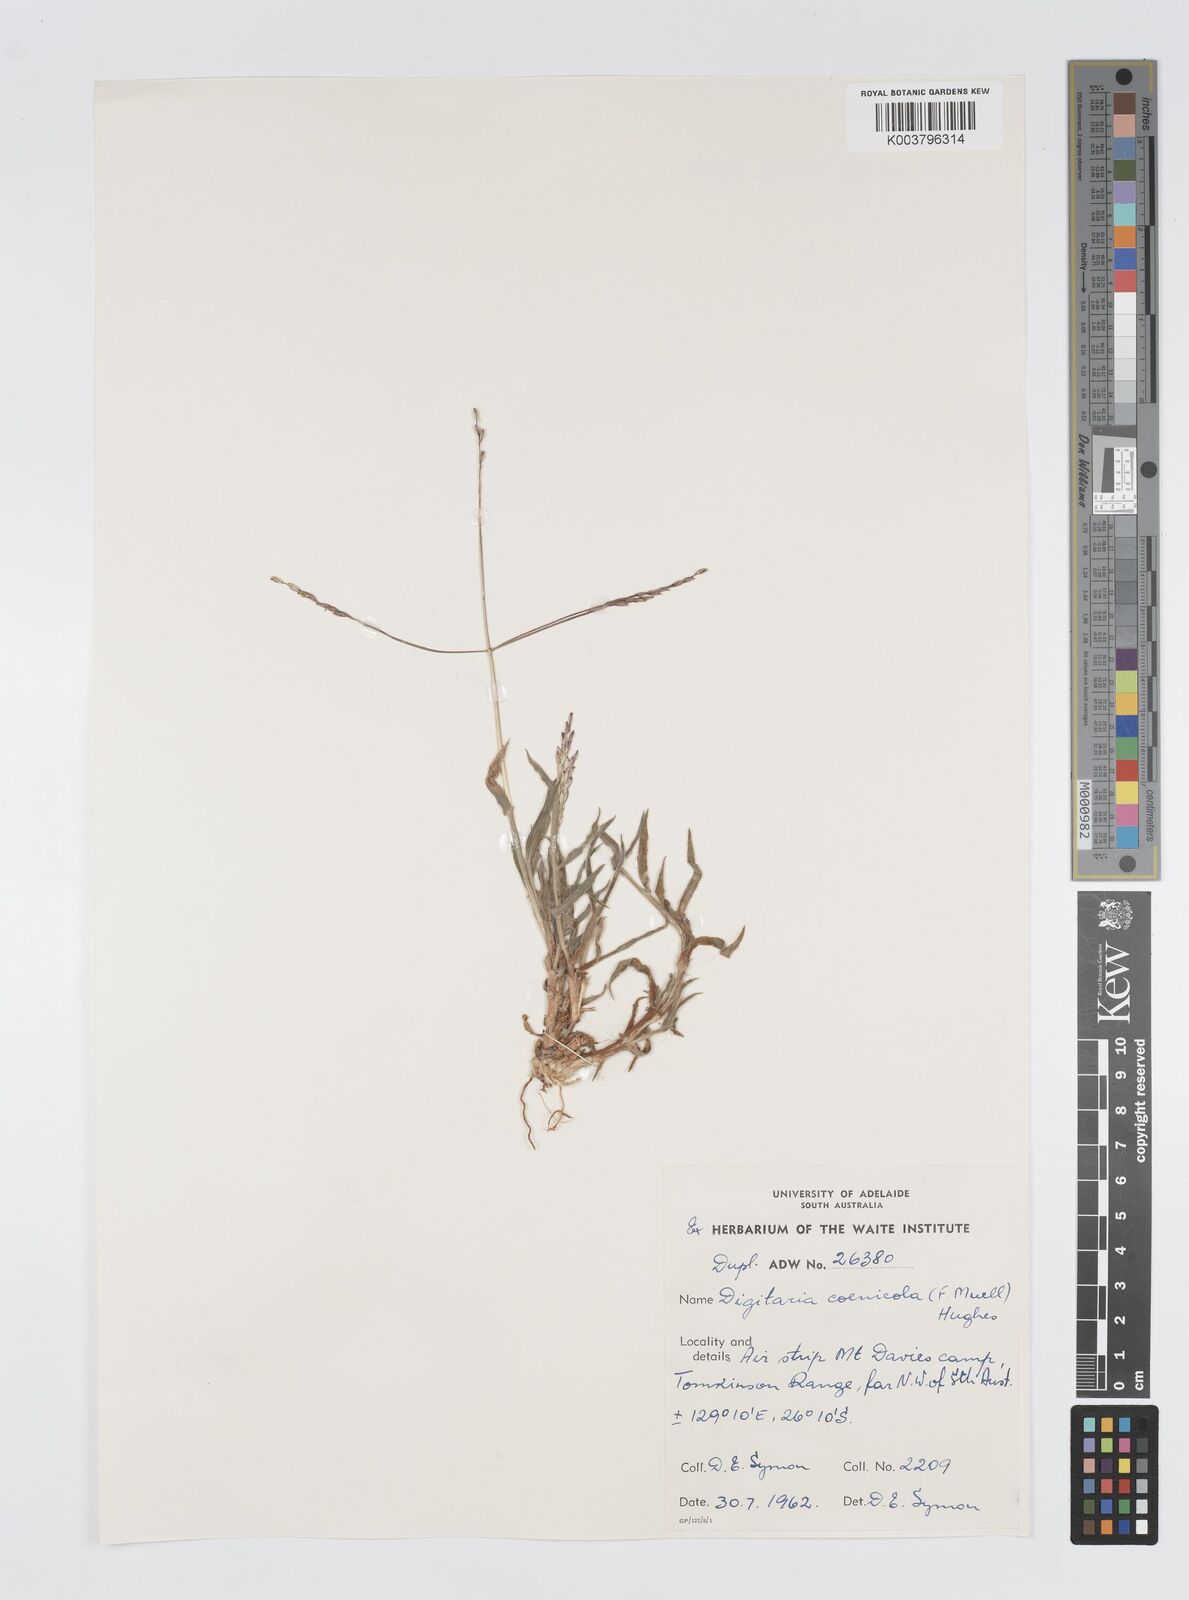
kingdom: Plantae
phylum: Tracheophyta
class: Liliopsida
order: Poales
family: Poaceae
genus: Digitaria
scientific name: Digitaria coenicola
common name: Kanta grass
